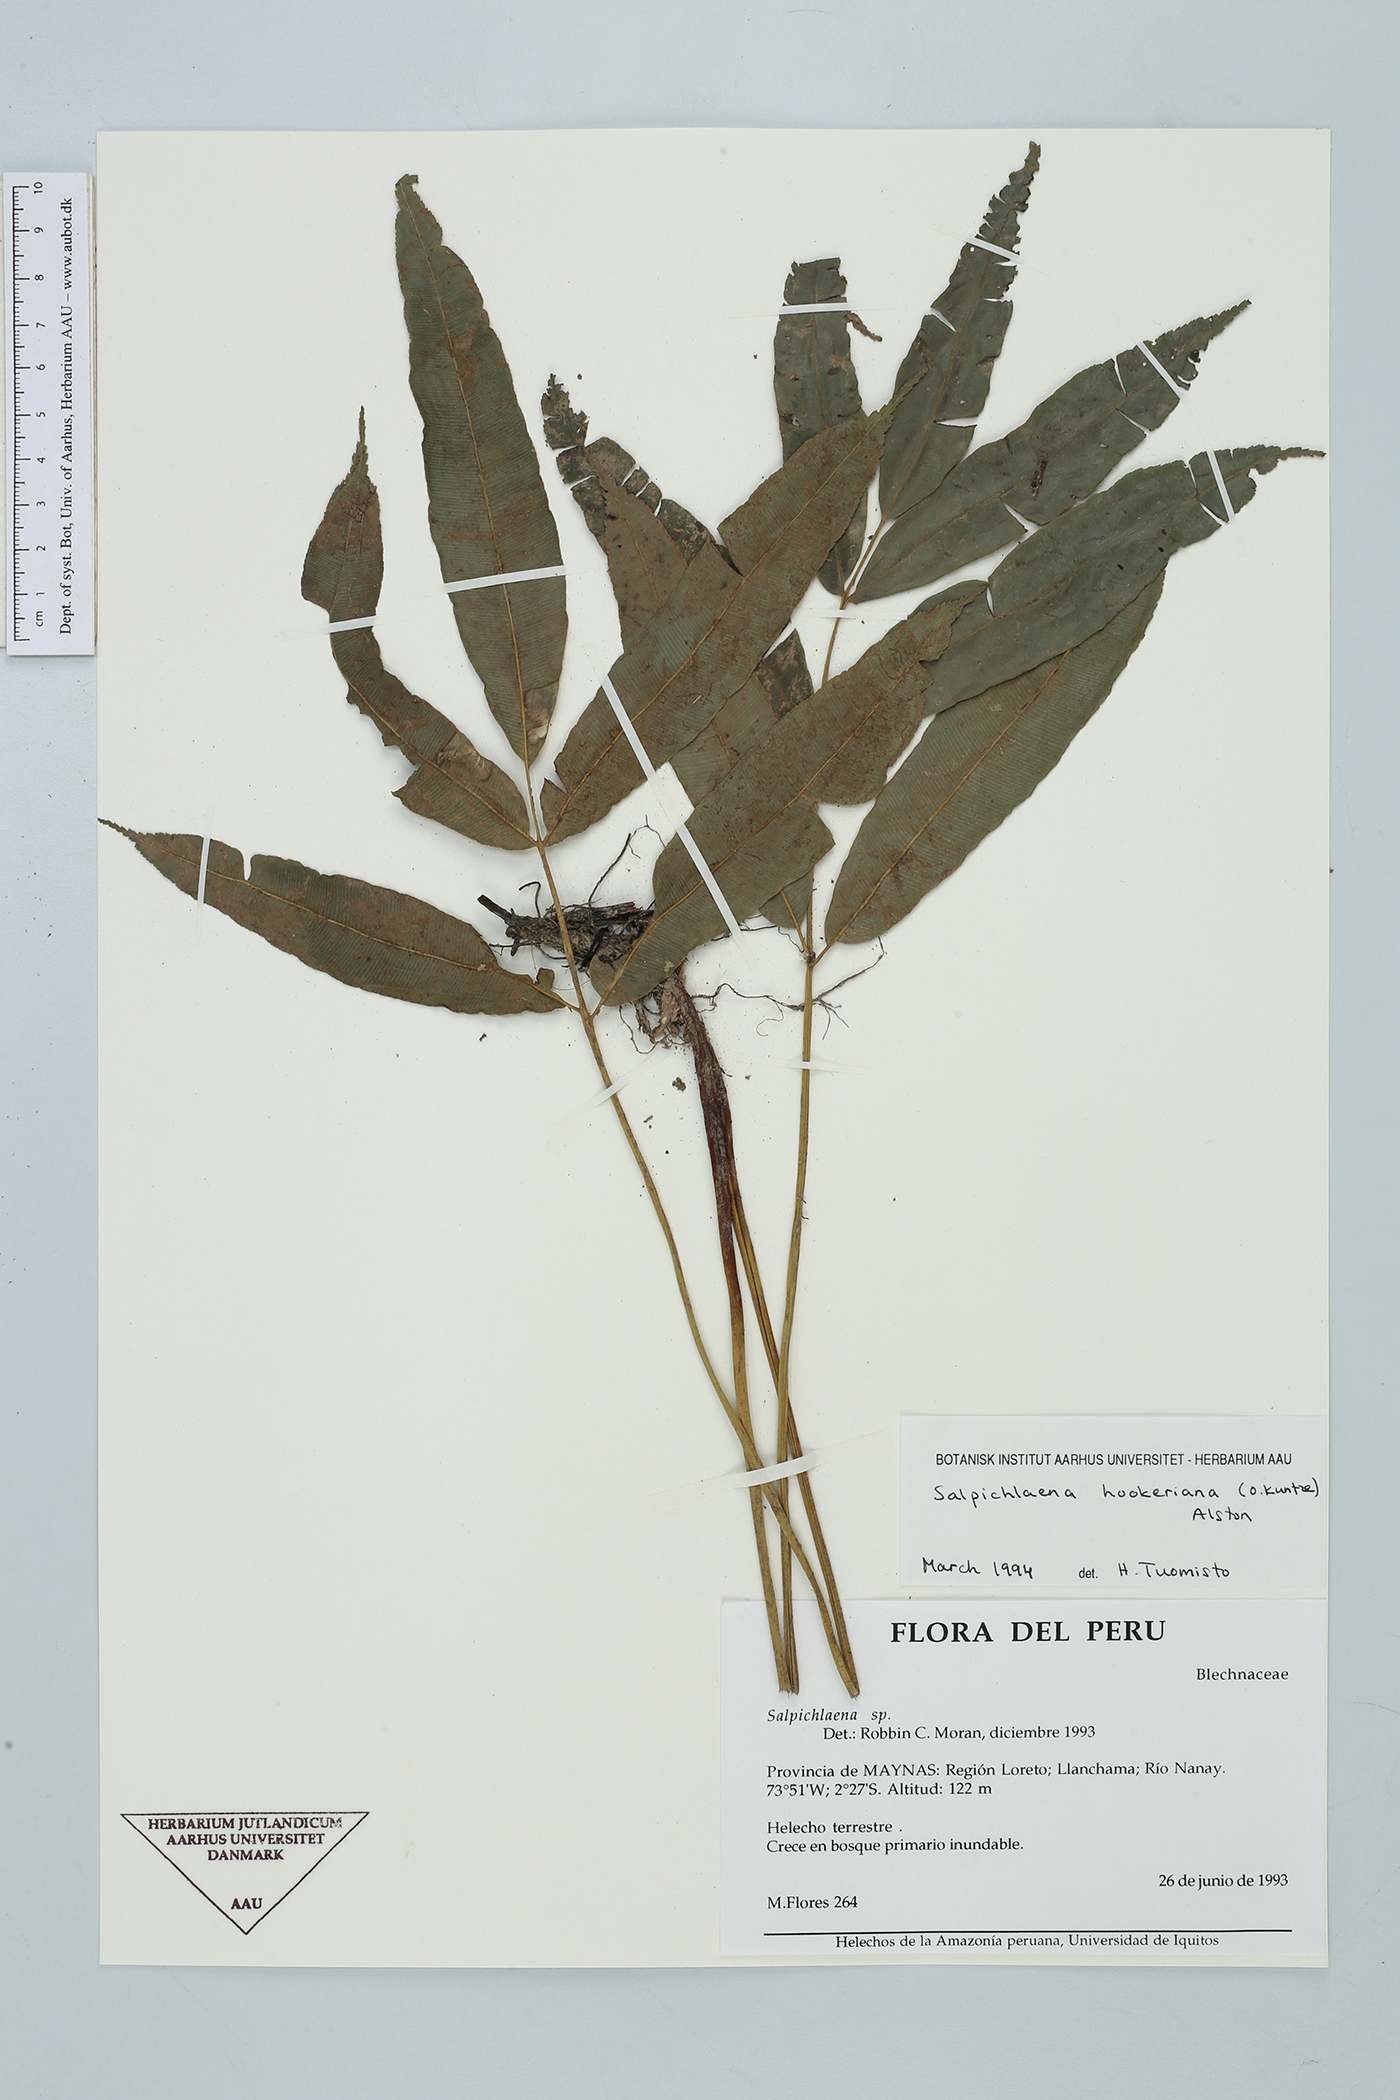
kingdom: Plantae
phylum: Tracheophyta
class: Polypodiopsida
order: Polypodiales
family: Blechnaceae
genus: Salpichlaena
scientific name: Salpichlaena hookeriana
